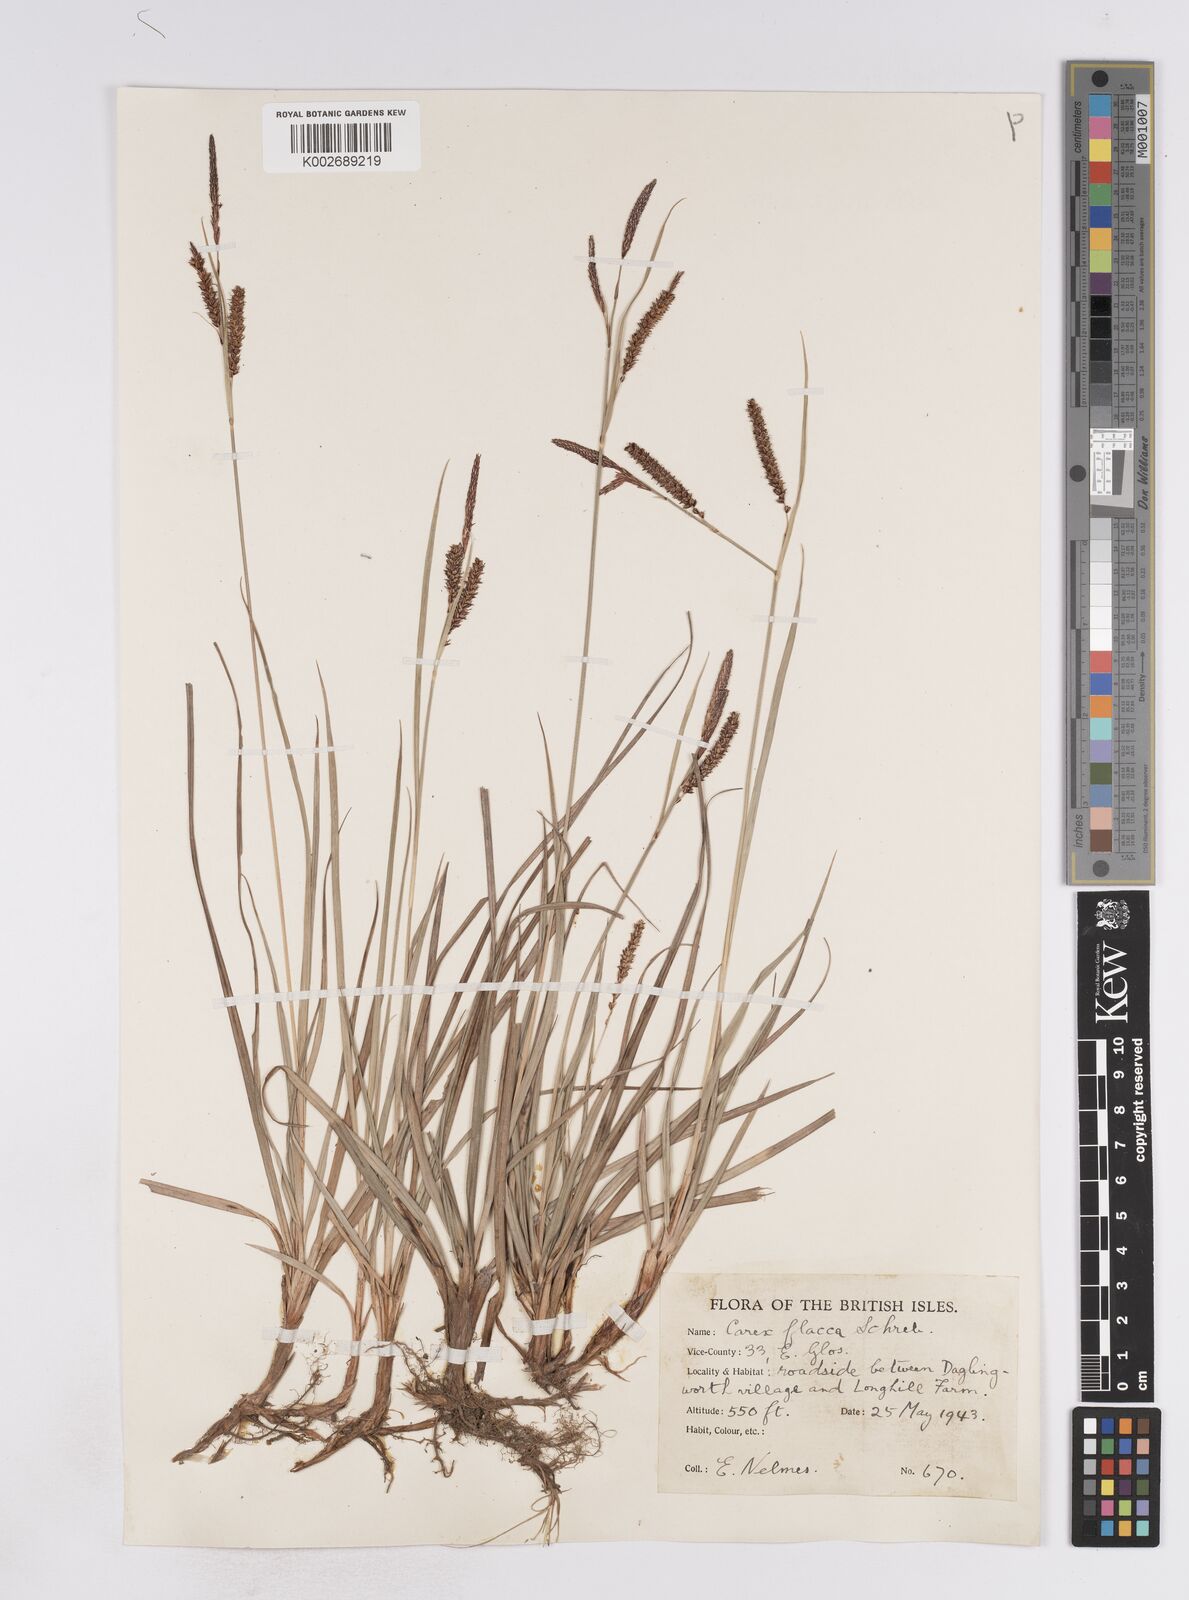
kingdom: Plantae
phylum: Tracheophyta
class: Liliopsida
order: Poales
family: Cyperaceae
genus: Carex
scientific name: Carex flacca
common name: Glaucous sedge
